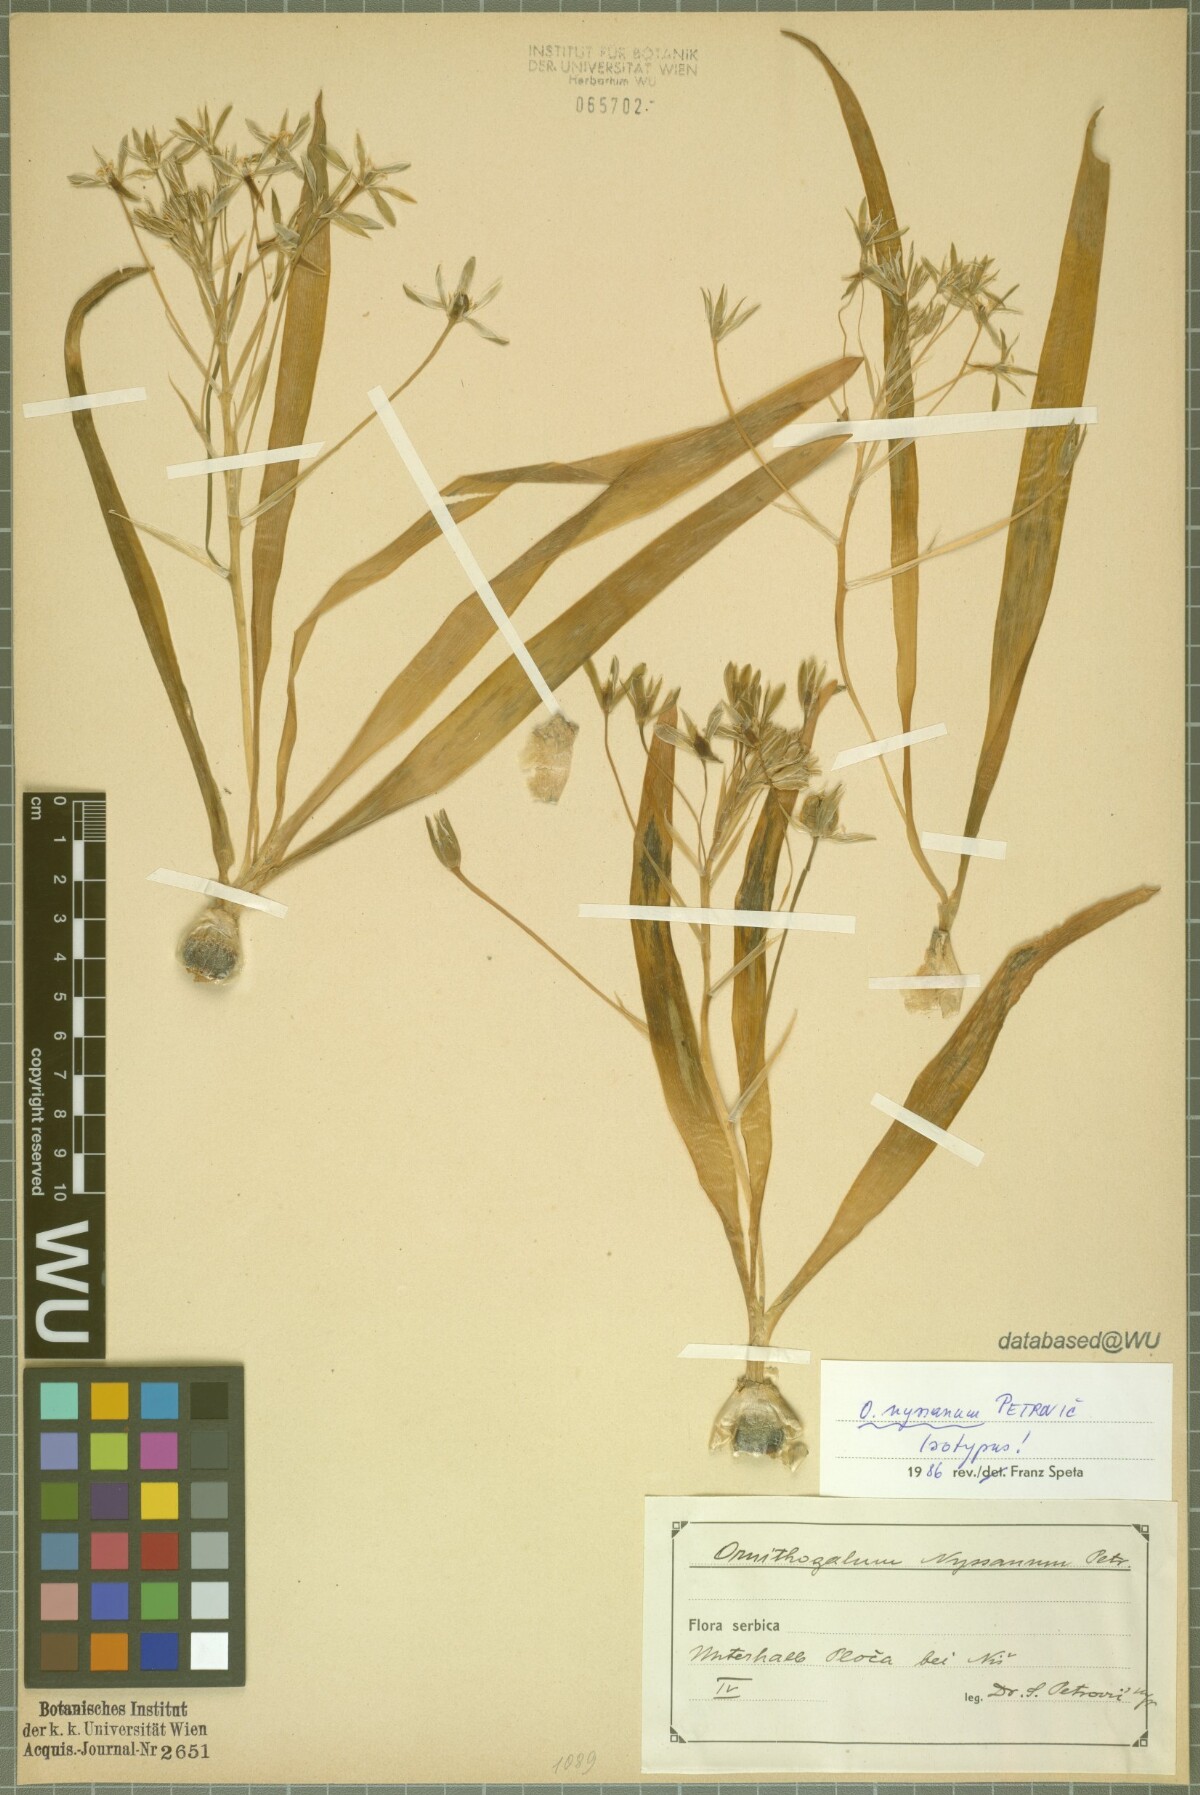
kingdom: Plantae
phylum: Tracheophyta
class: Liliopsida
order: Asparagales
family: Asparagaceae
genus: Ornithogalum
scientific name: Ornithogalum montanum
